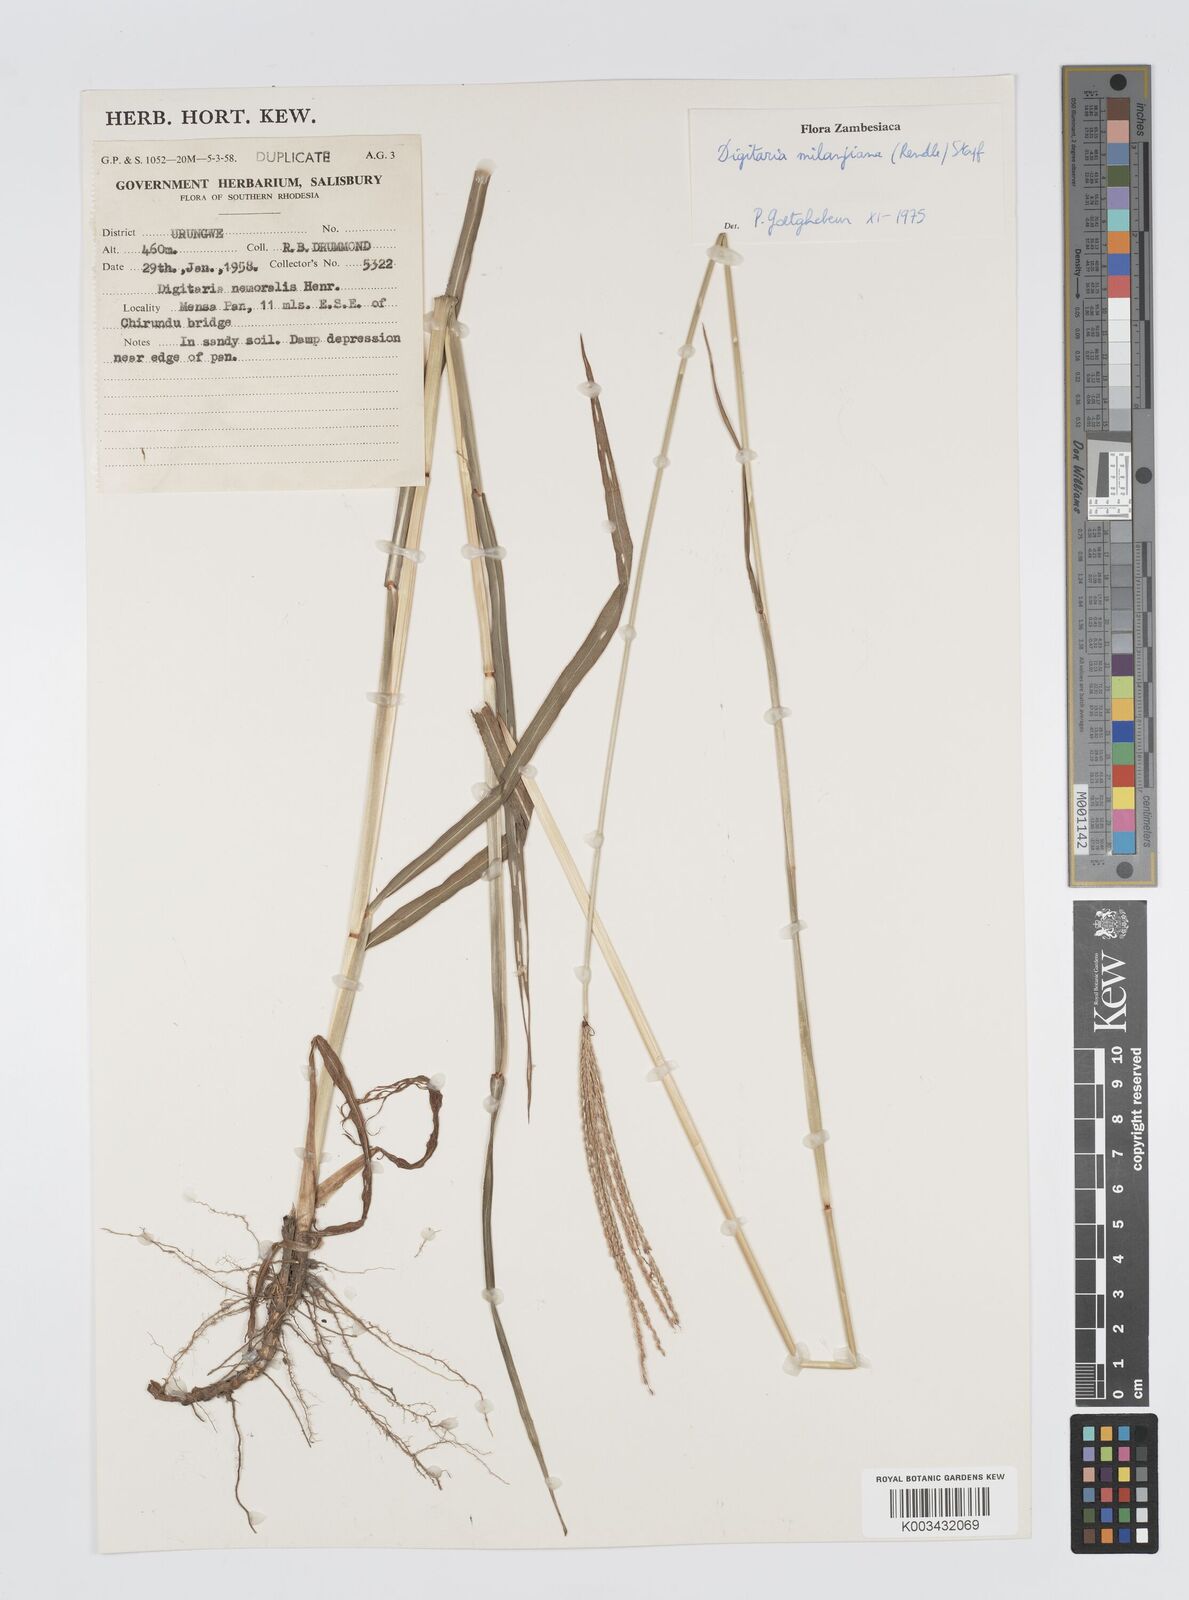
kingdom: Plantae
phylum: Tracheophyta
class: Liliopsida
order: Poales
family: Poaceae
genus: Digitaria
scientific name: Digitaria milanjiana
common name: Madagascar crabgrass
